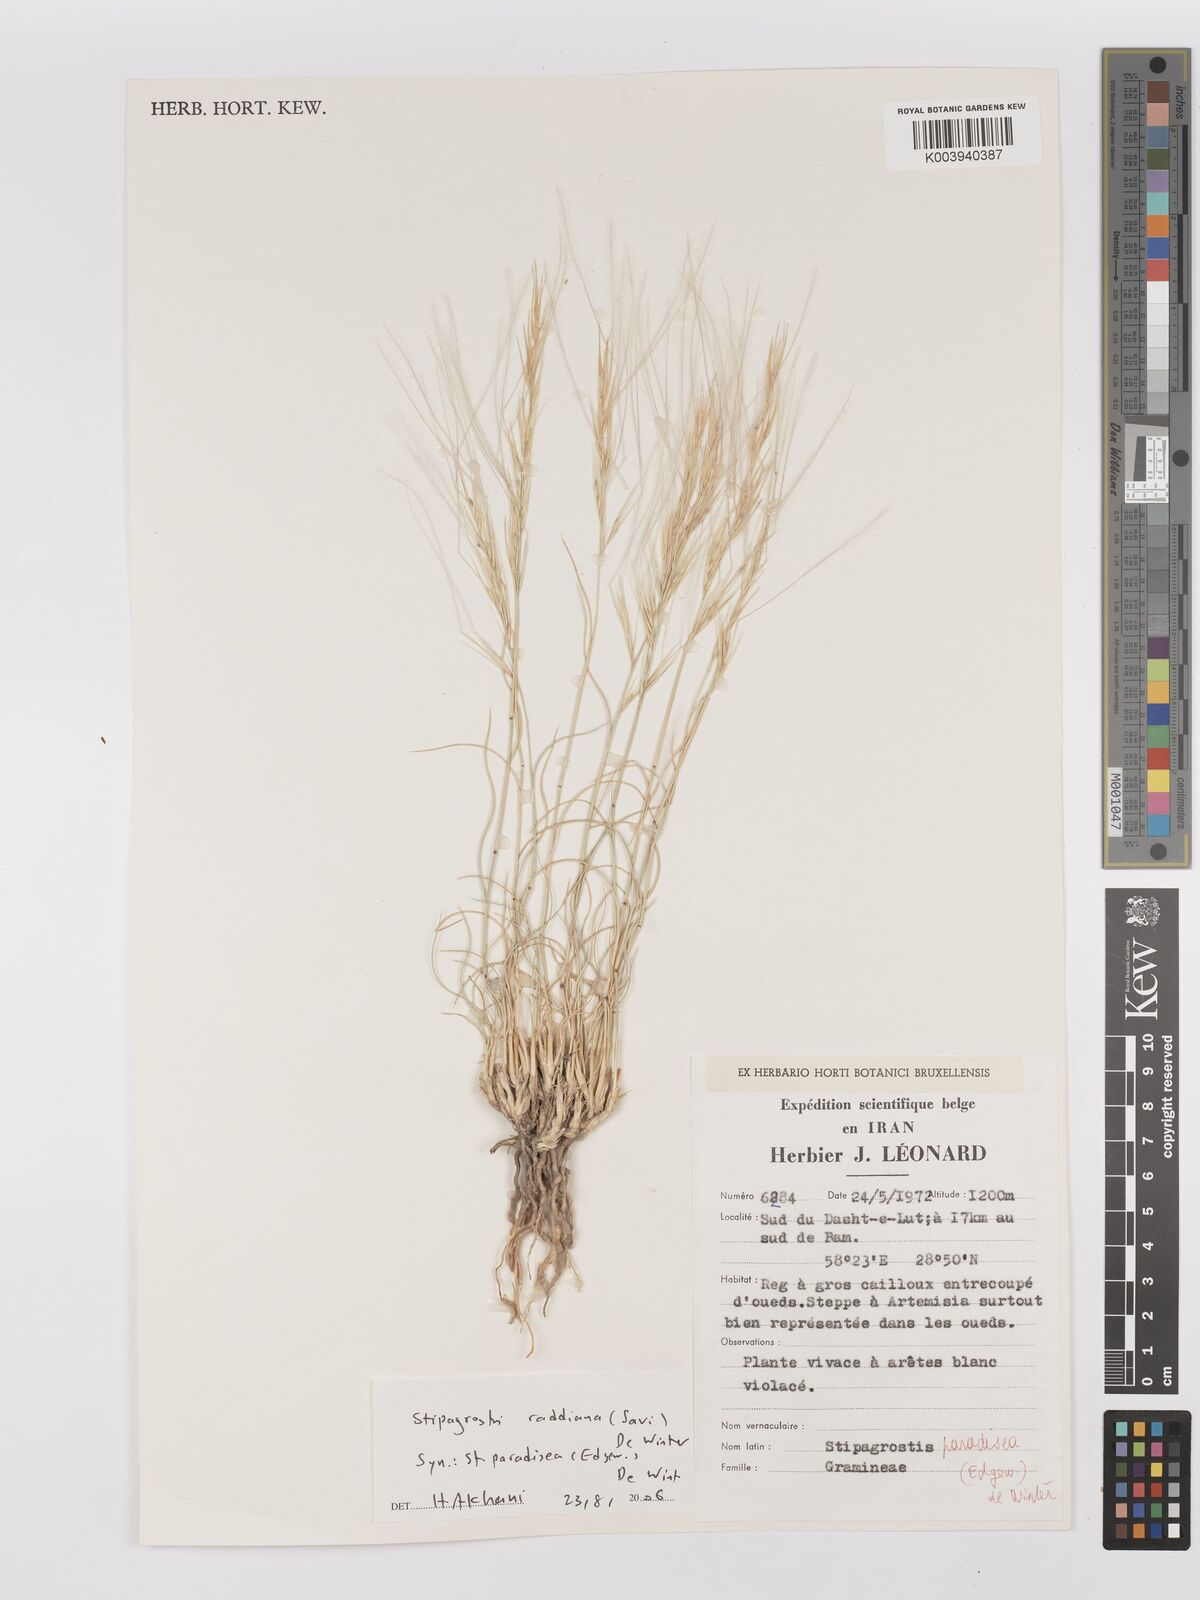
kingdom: Plantae
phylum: Tracheophyta
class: Liliopsida
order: Poales
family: Poaceae
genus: Stipagrostis
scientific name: Stipagrostis paradisea
